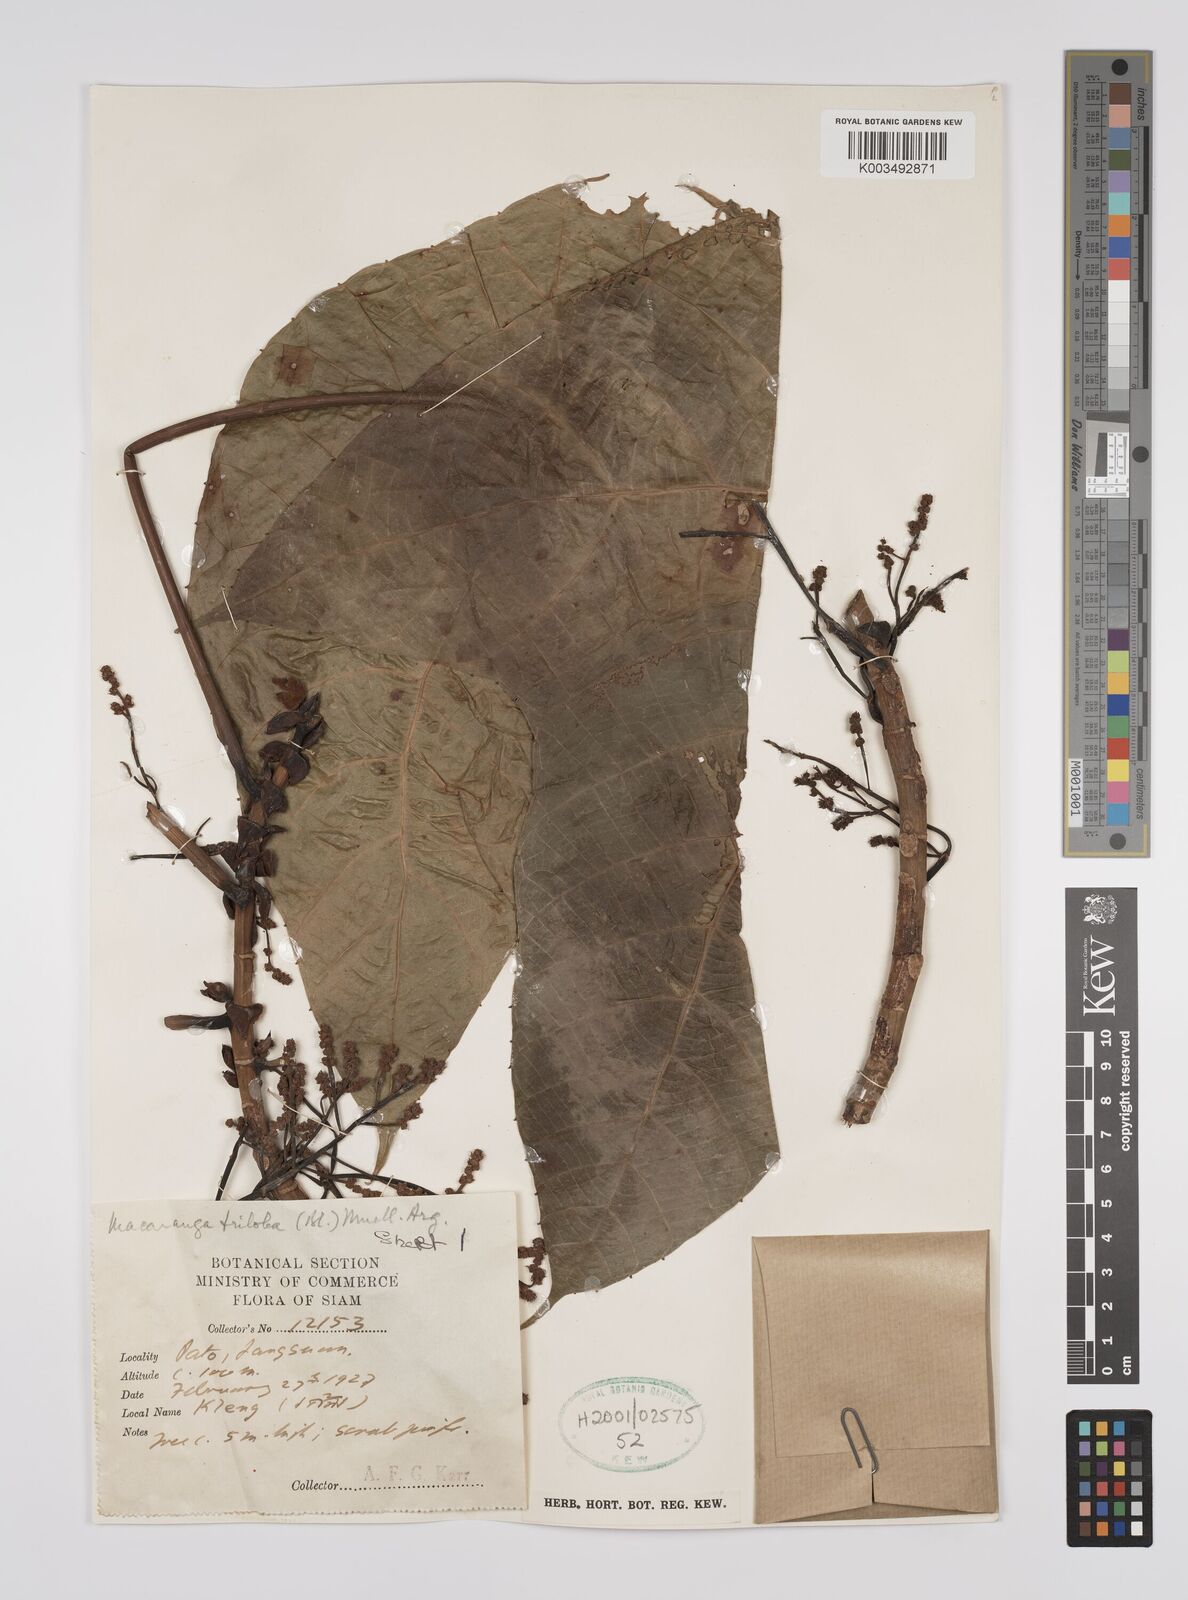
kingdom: Plantae
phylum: Tracheophyta
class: Magnoliopsida
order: Malpighiales
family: Euphorbiaceae
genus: Macaranga
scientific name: Macaranga triloba
